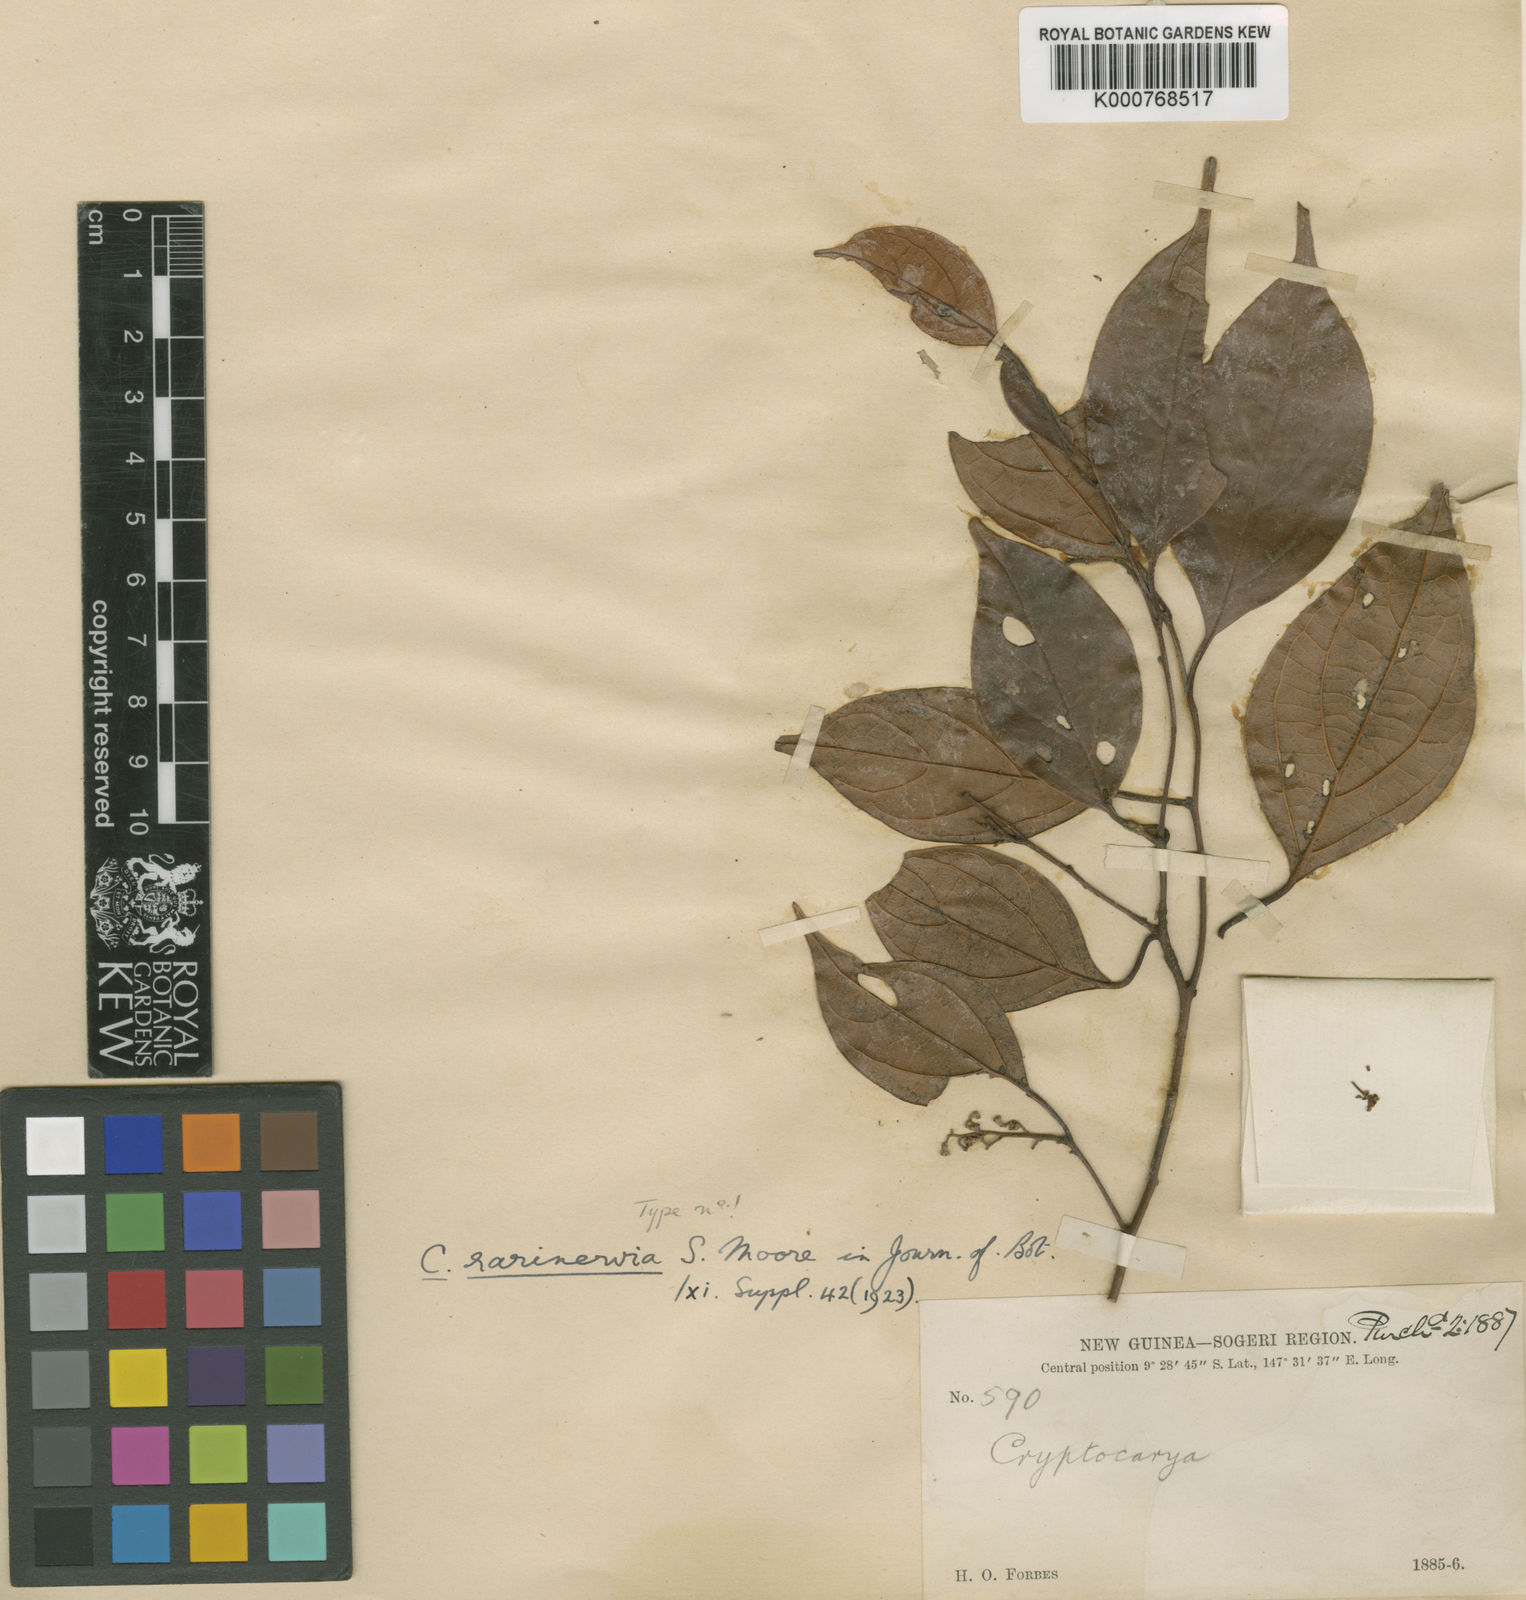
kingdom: Plantae
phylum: Tracheophyta
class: Magnoliopsida
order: Laurales
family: Lauraceae
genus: Cryptocarya
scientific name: Cryptocarya rarinervia
